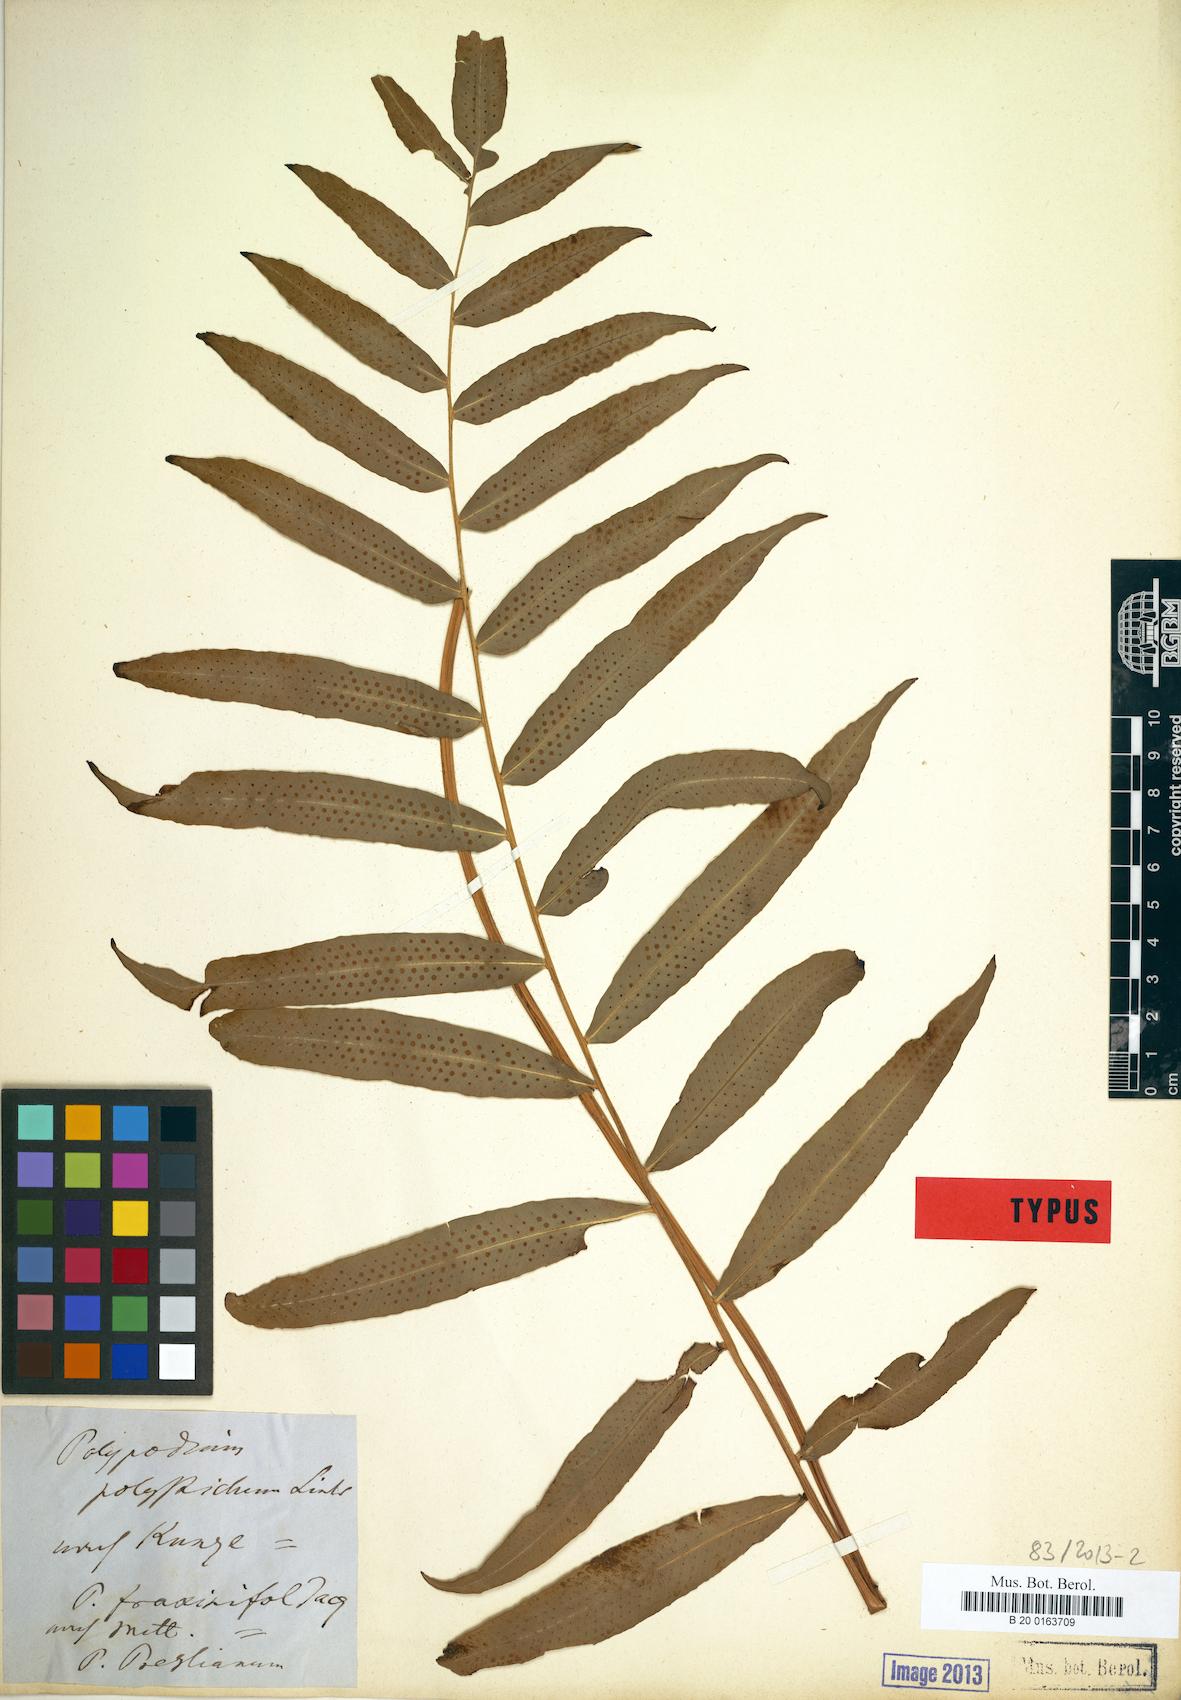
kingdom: Plantae
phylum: Tracheophyta
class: Polypodiopsida
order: Polypodiales
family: Polypodiaceae
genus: Serpocaulon
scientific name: Serpocaulon fraxinifolium
